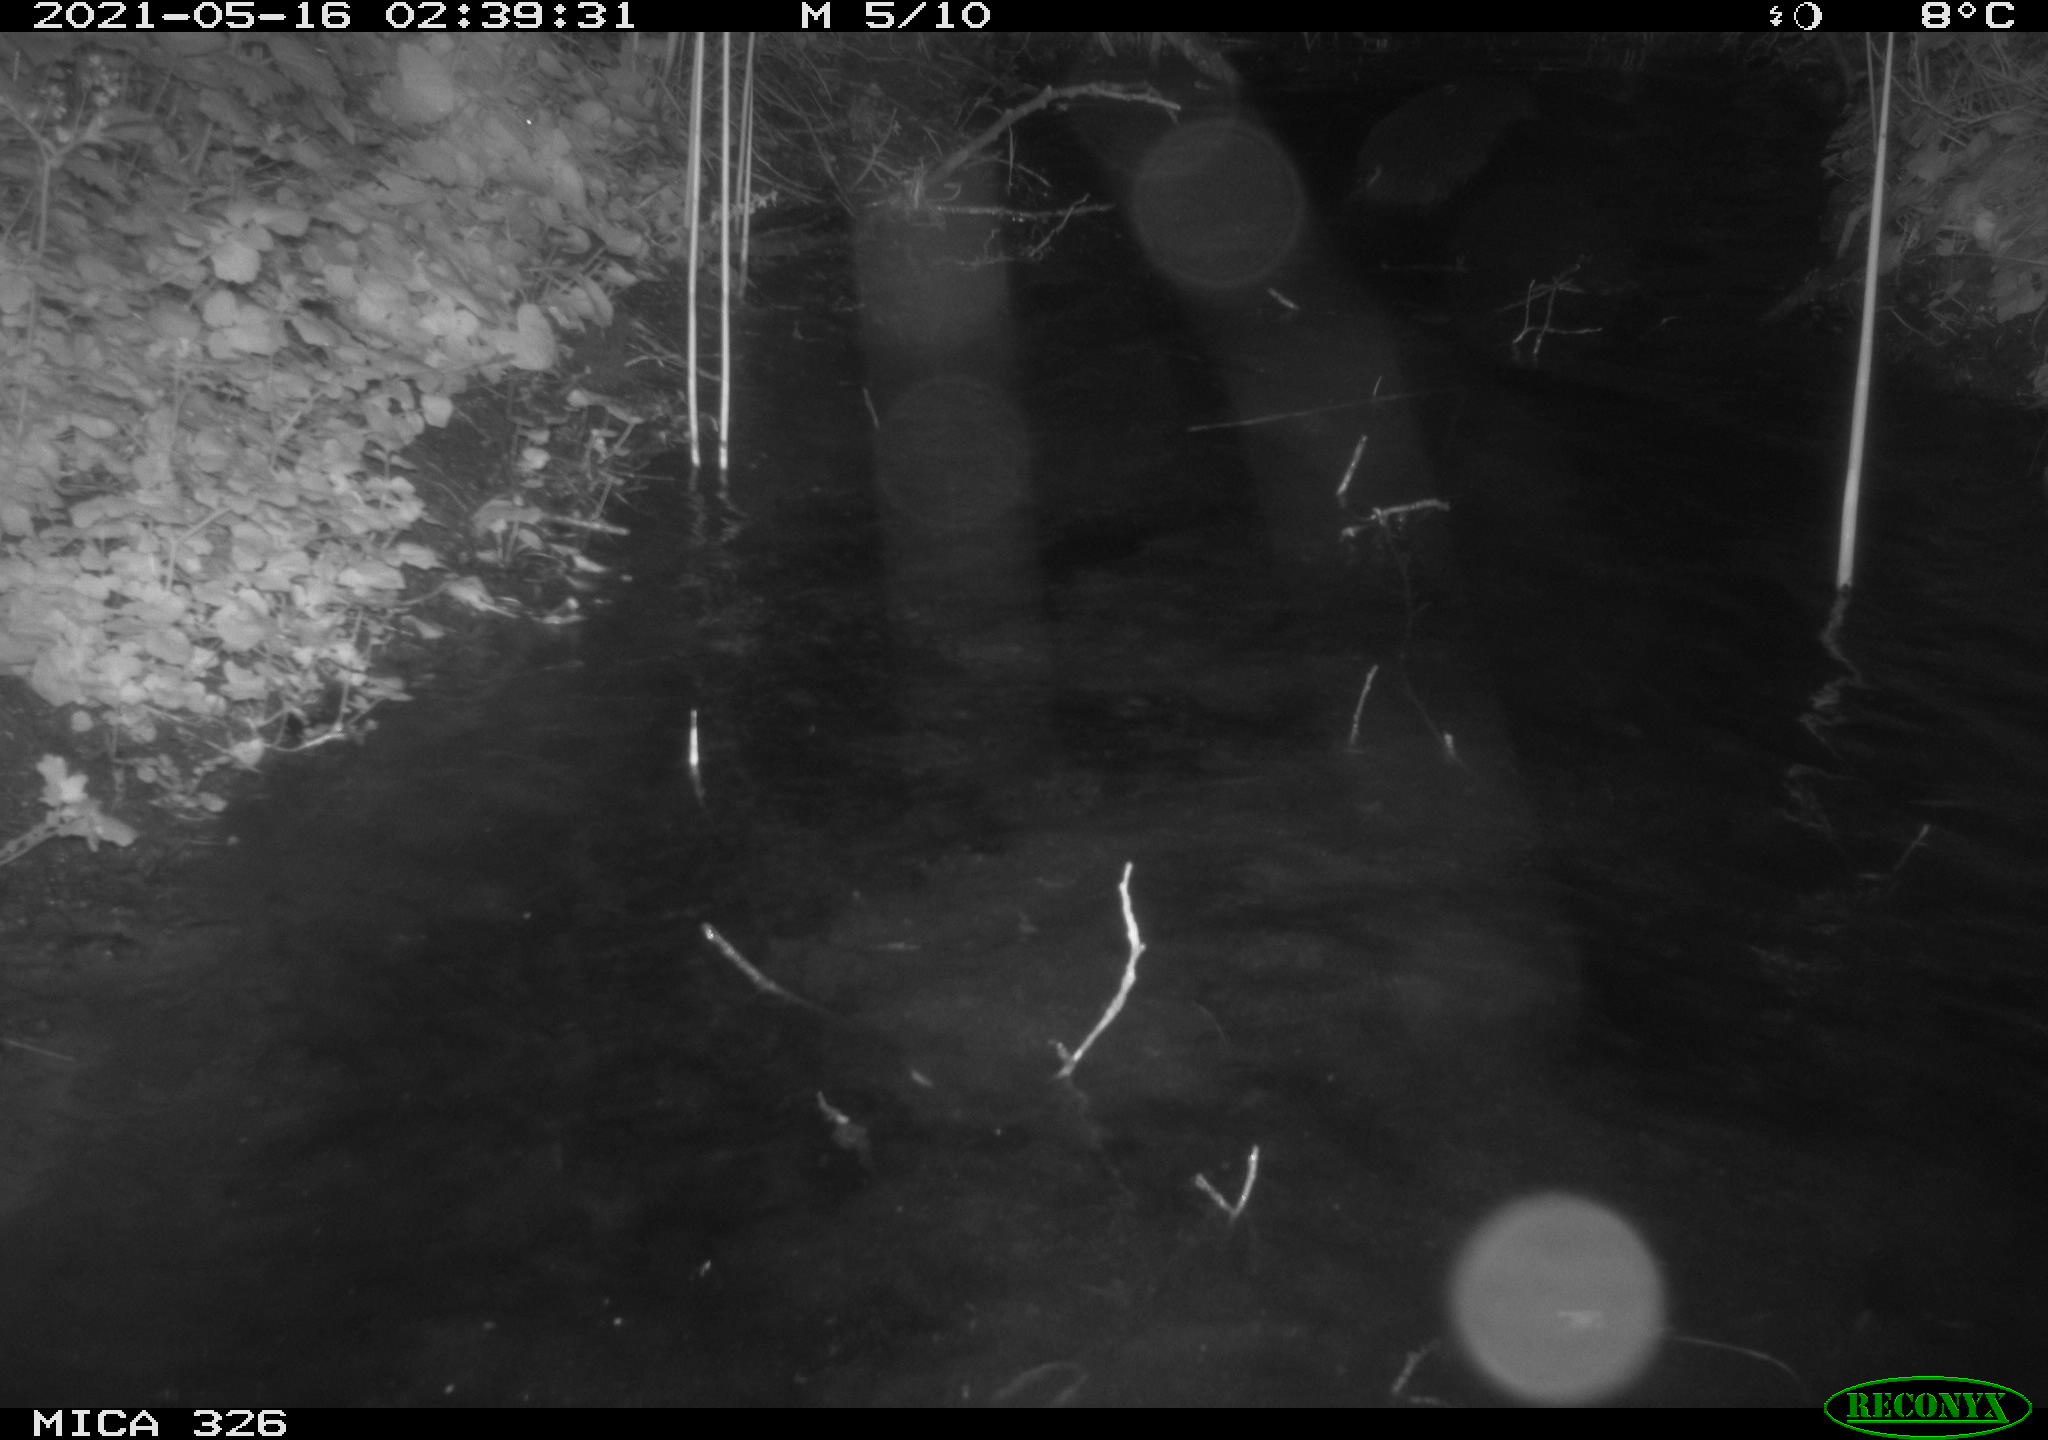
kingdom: Animalia
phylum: Chordata
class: Mammalia
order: Carnivora
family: Mustelidae
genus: Lutra
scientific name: Lutra lutra
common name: European otter
